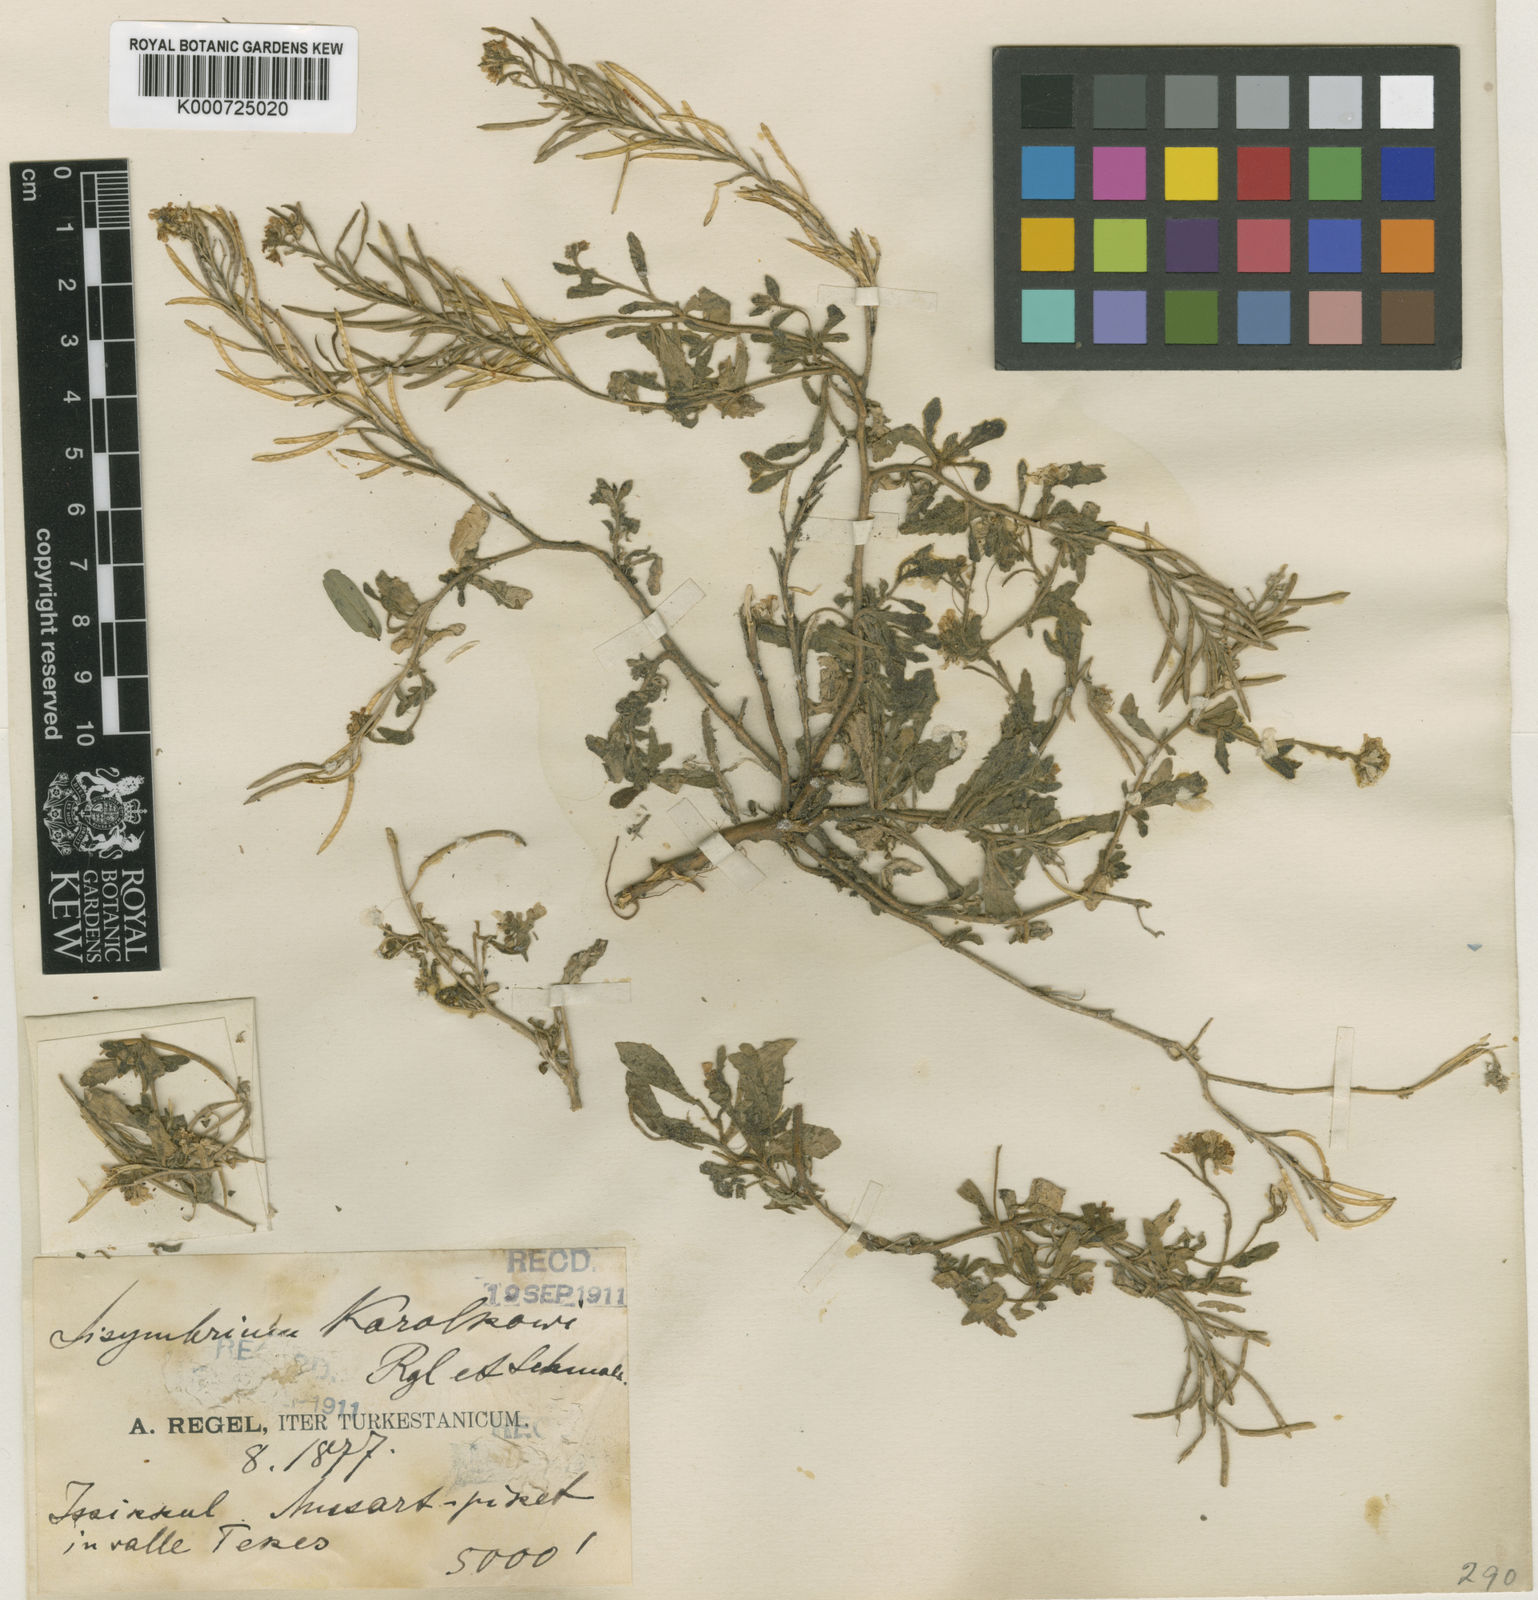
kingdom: Plantae
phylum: Tracheophyta
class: Magnoliopsida
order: Brassicales
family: Brassicaceae
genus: Neotorularia
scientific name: Neotorularia
